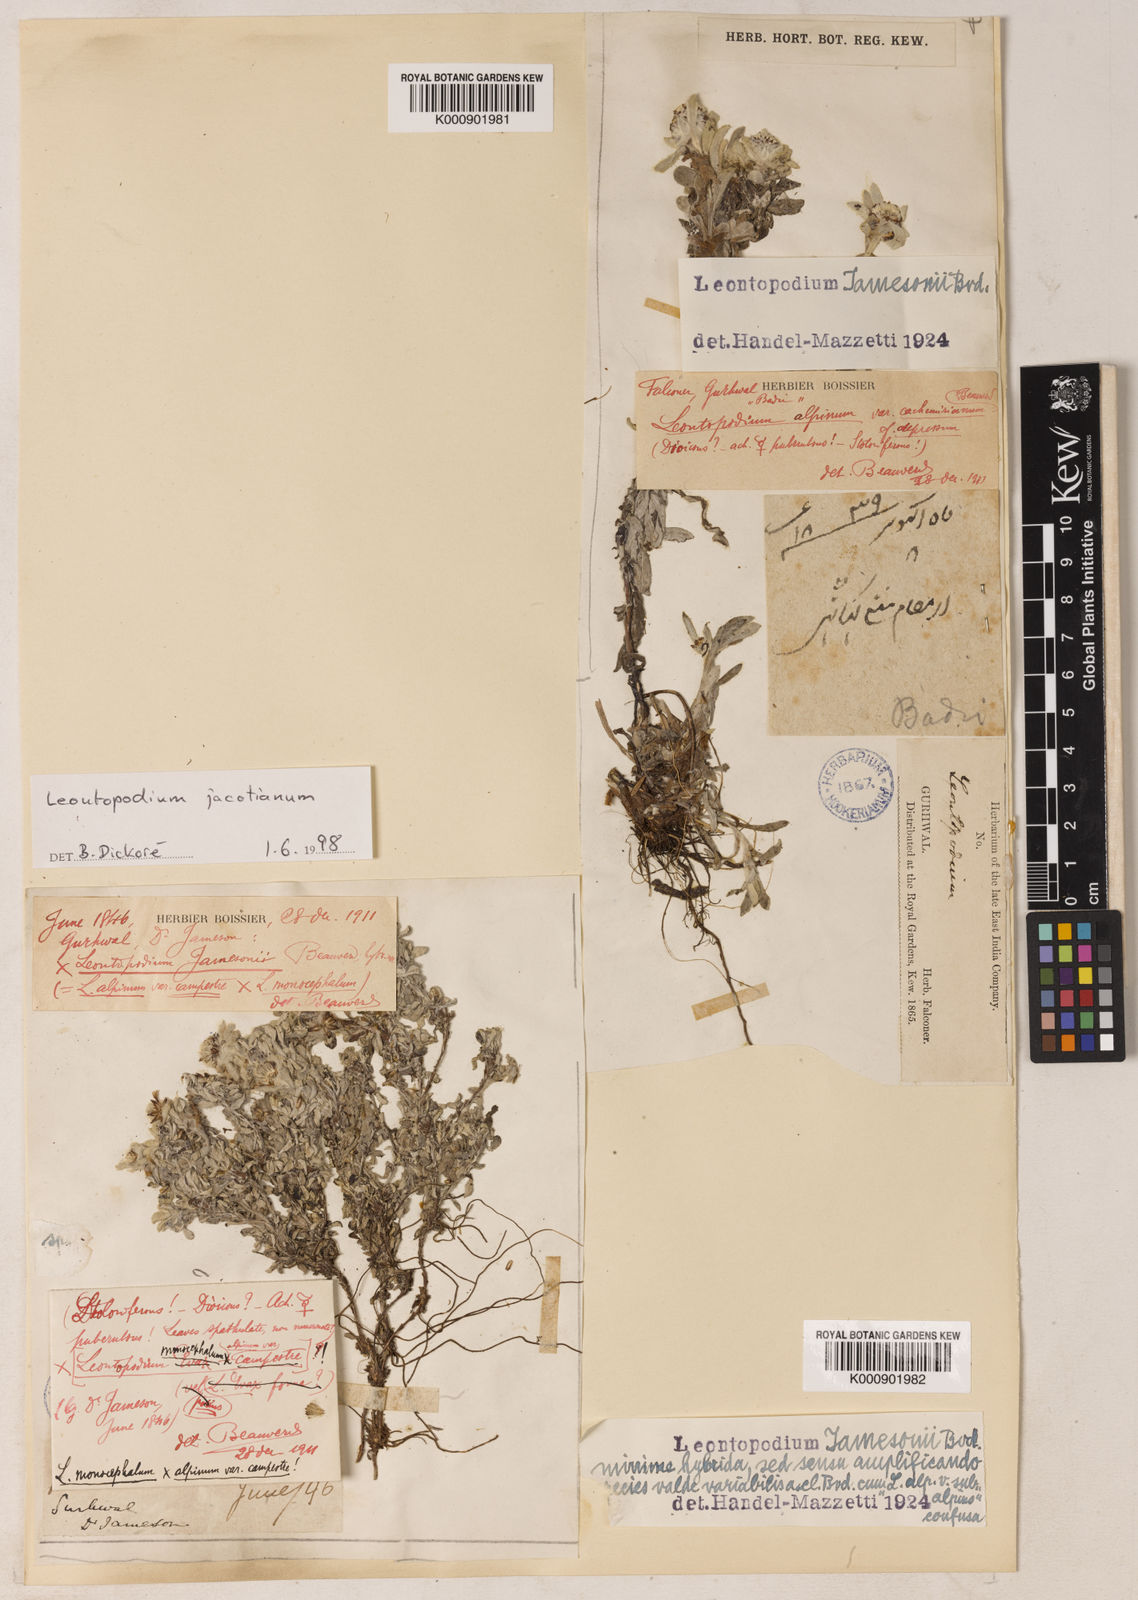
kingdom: Plantae
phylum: Tracheophyta
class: Magnoliopsida
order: Asterales
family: Asteraceae
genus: Leontopodium
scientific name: Leontopodium nanum
